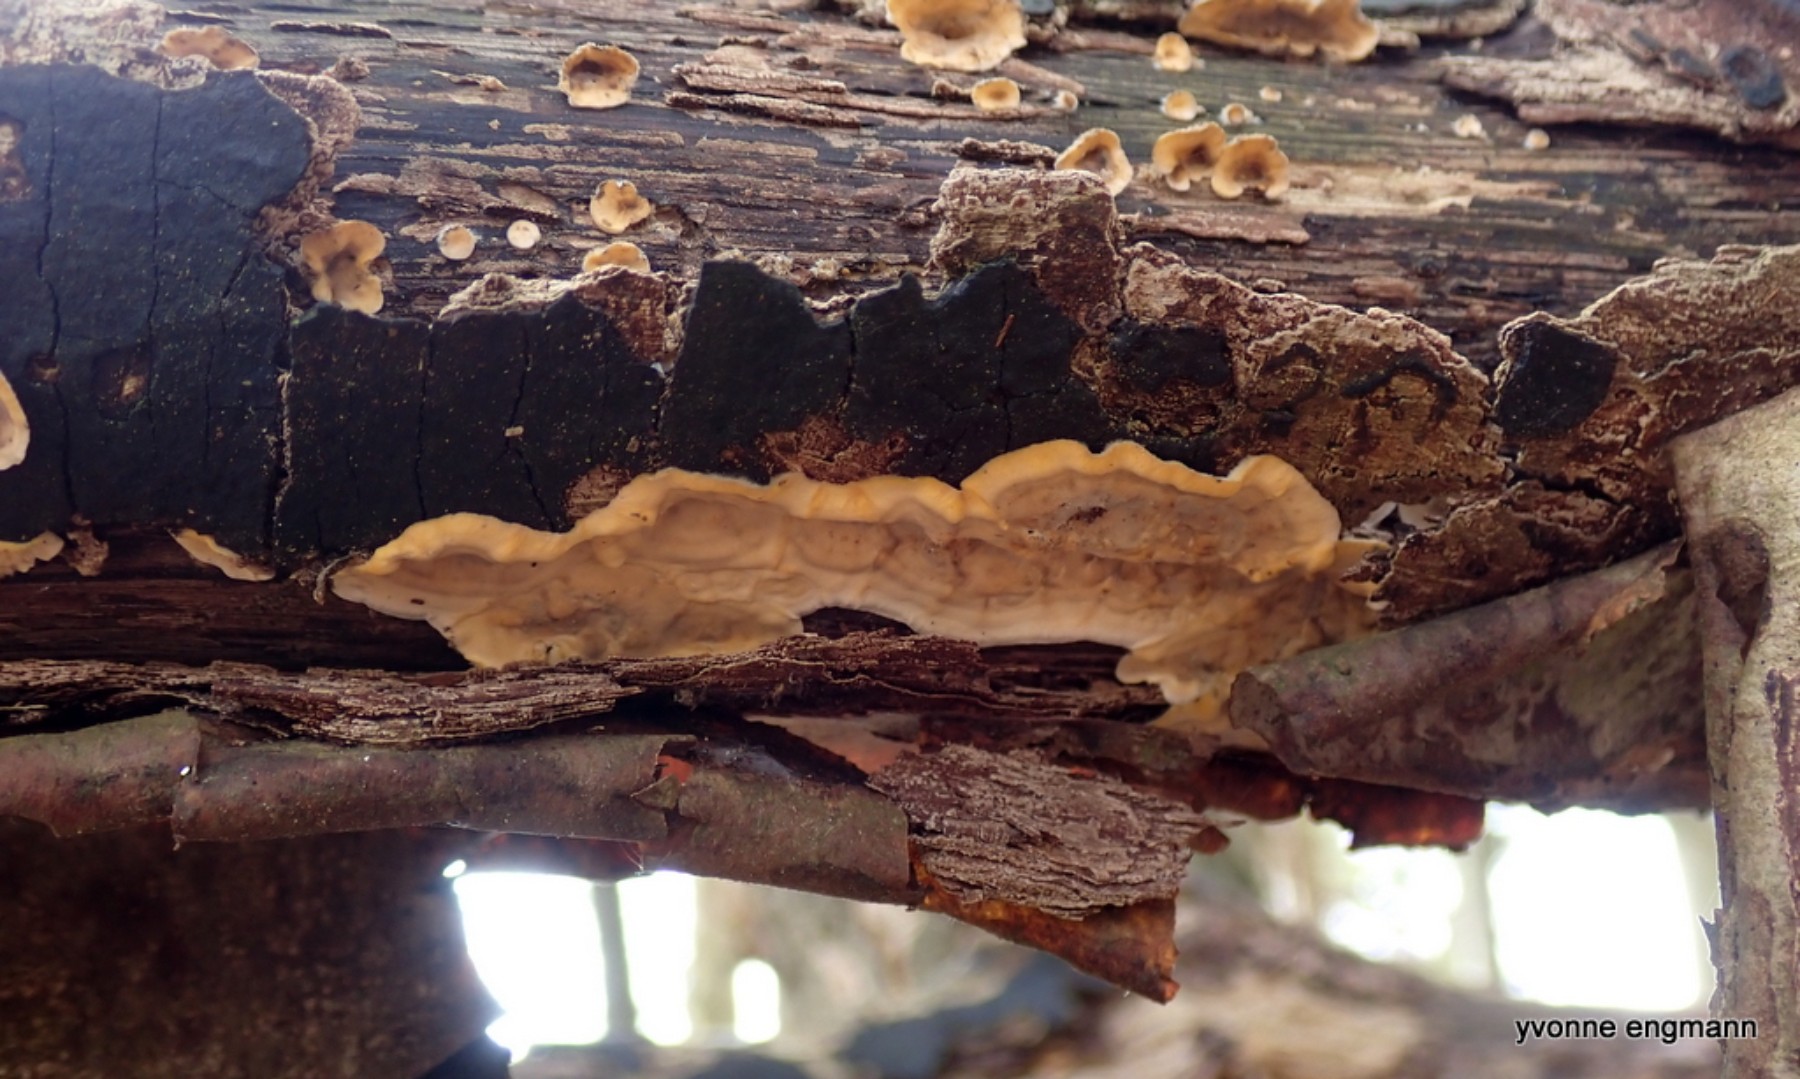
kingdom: Fungi
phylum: Basidiomycota
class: Agaricomycetes
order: Russulales
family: Stereaceae
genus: Stereum
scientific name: Stereum hirsutum
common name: håret lædersvamp
